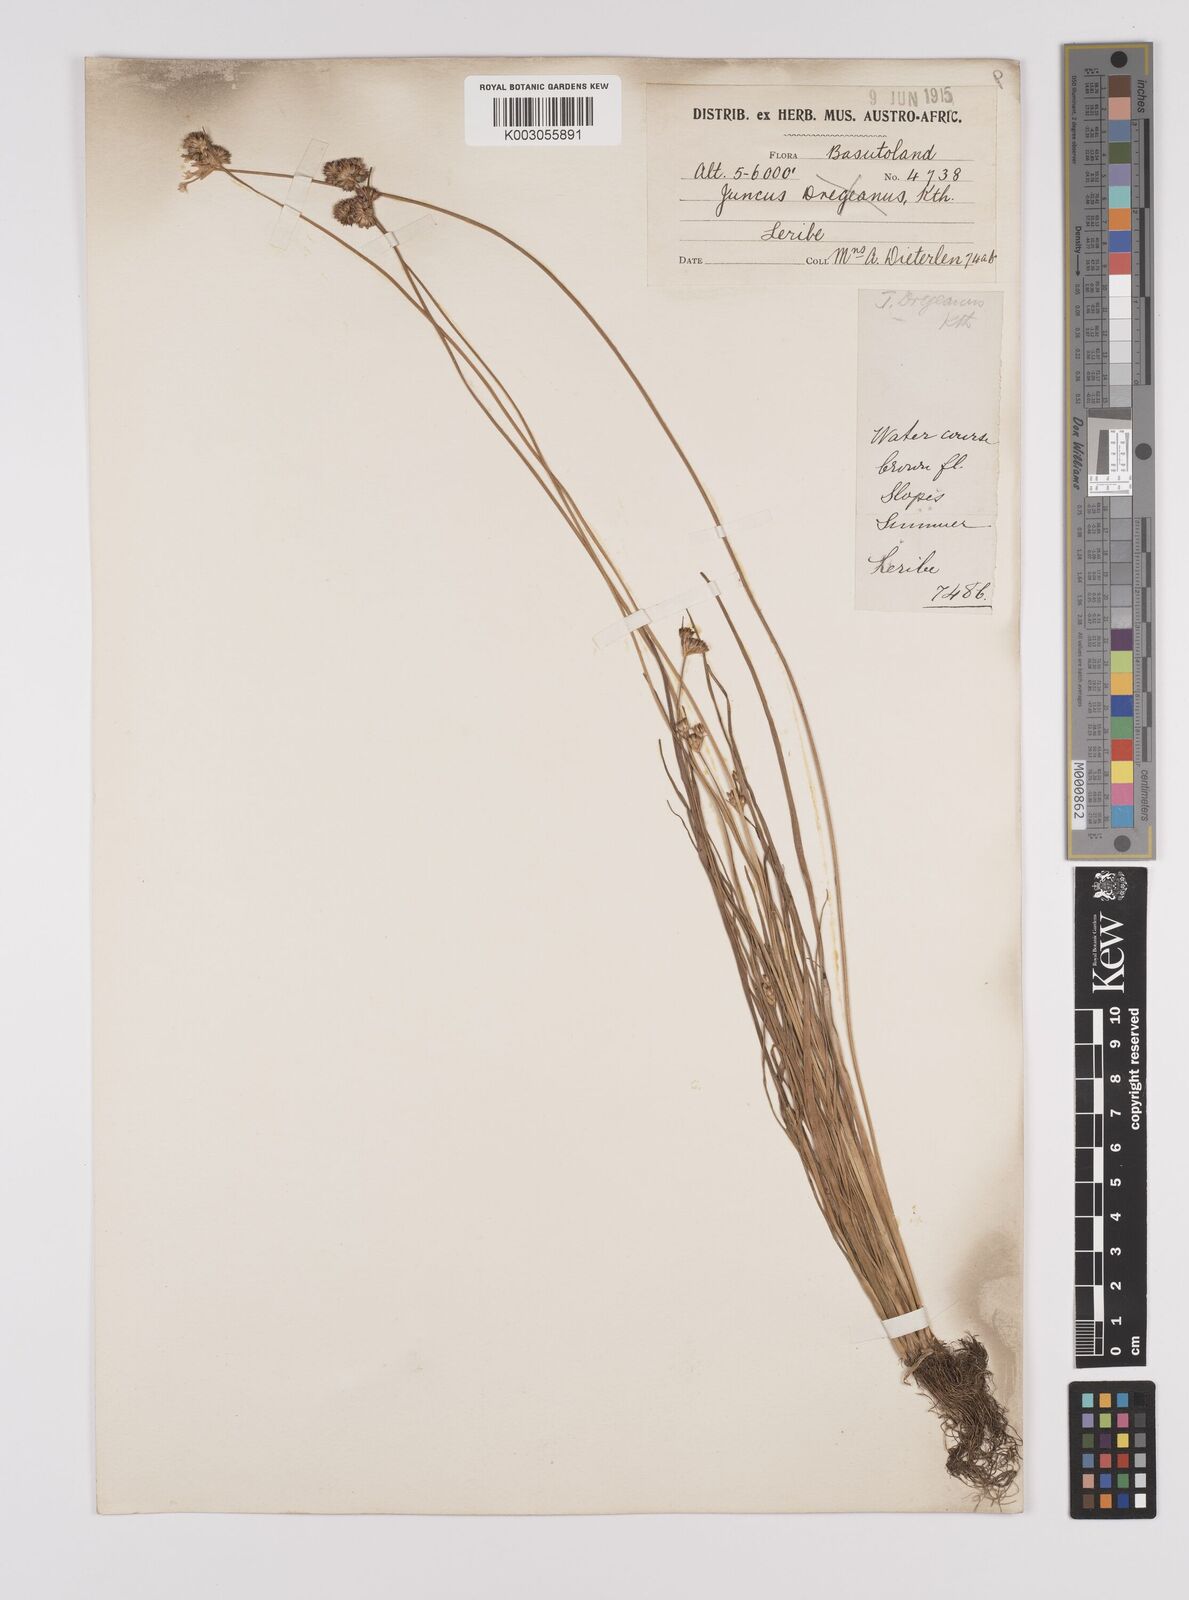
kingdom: Plantae
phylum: Tracheophyta
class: Liliopsida
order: Poales
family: Juncaceae
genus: Juncus
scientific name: Juncus dregeanus
